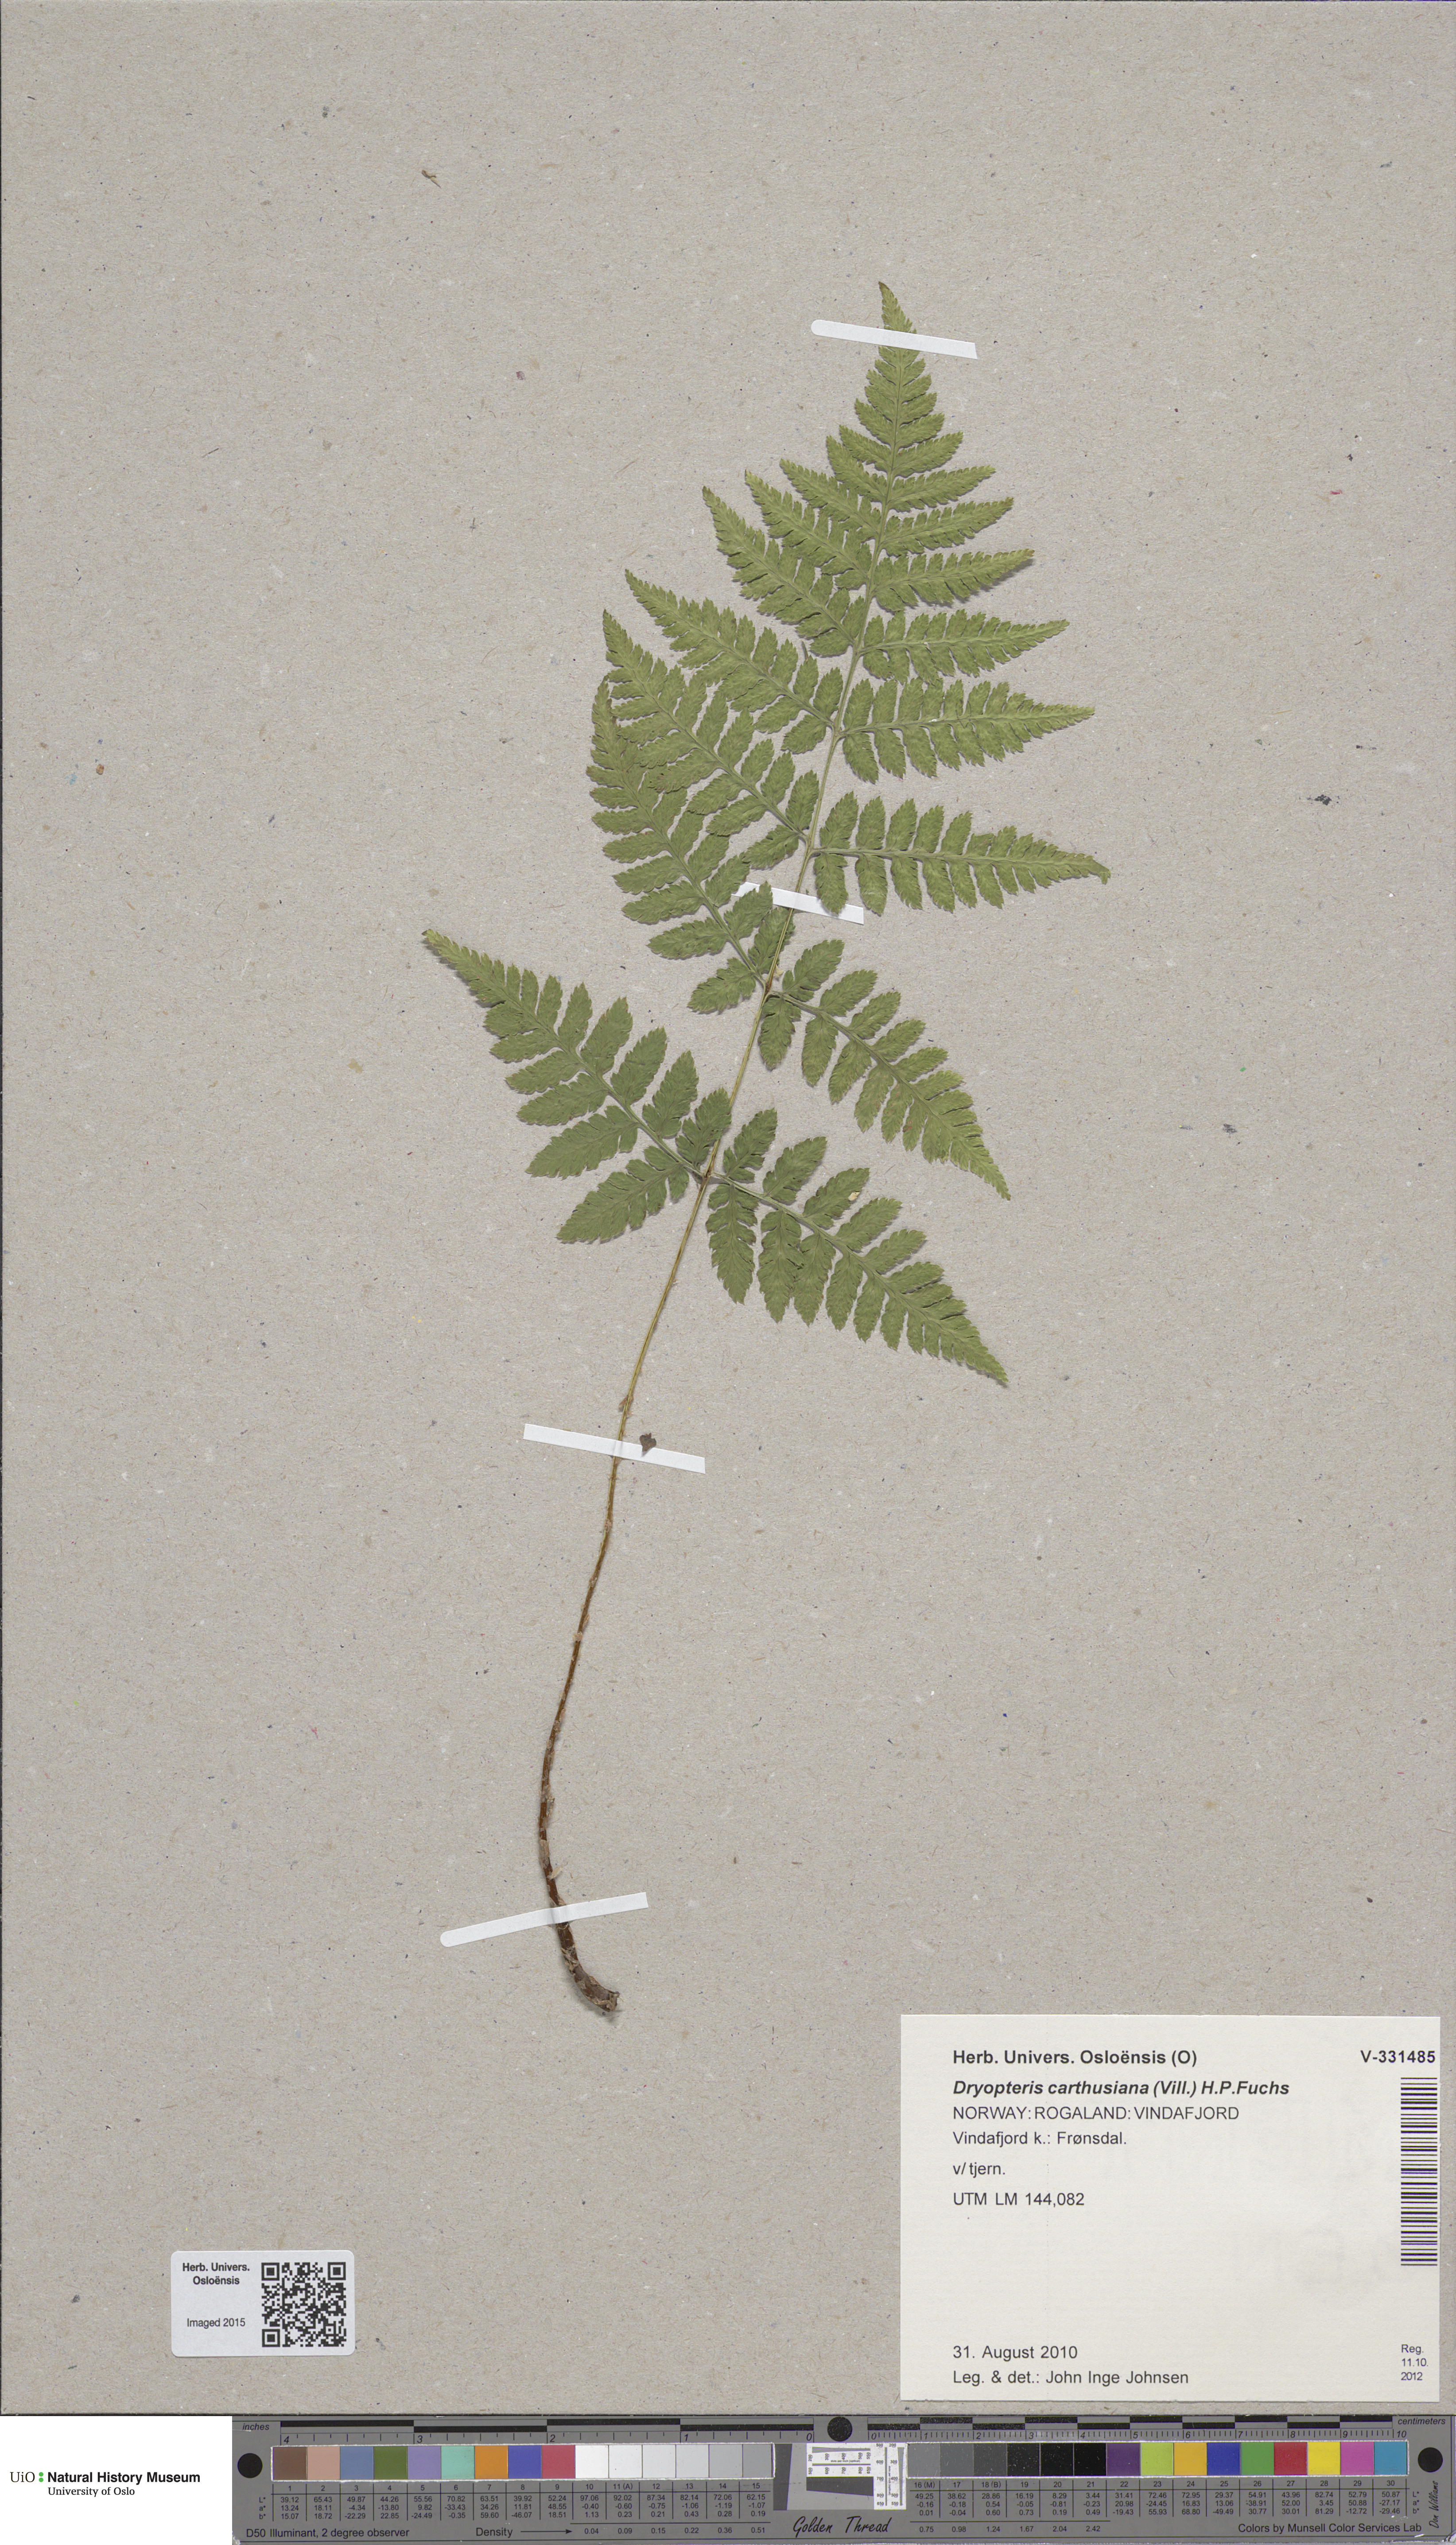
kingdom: Plantae
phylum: Tracheophyta
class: Polypodiopsida
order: Polypodiales
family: Dryopteridaceae
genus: Dryopteris
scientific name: Dryopteris carthusiana
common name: Narrow buckler-fern
